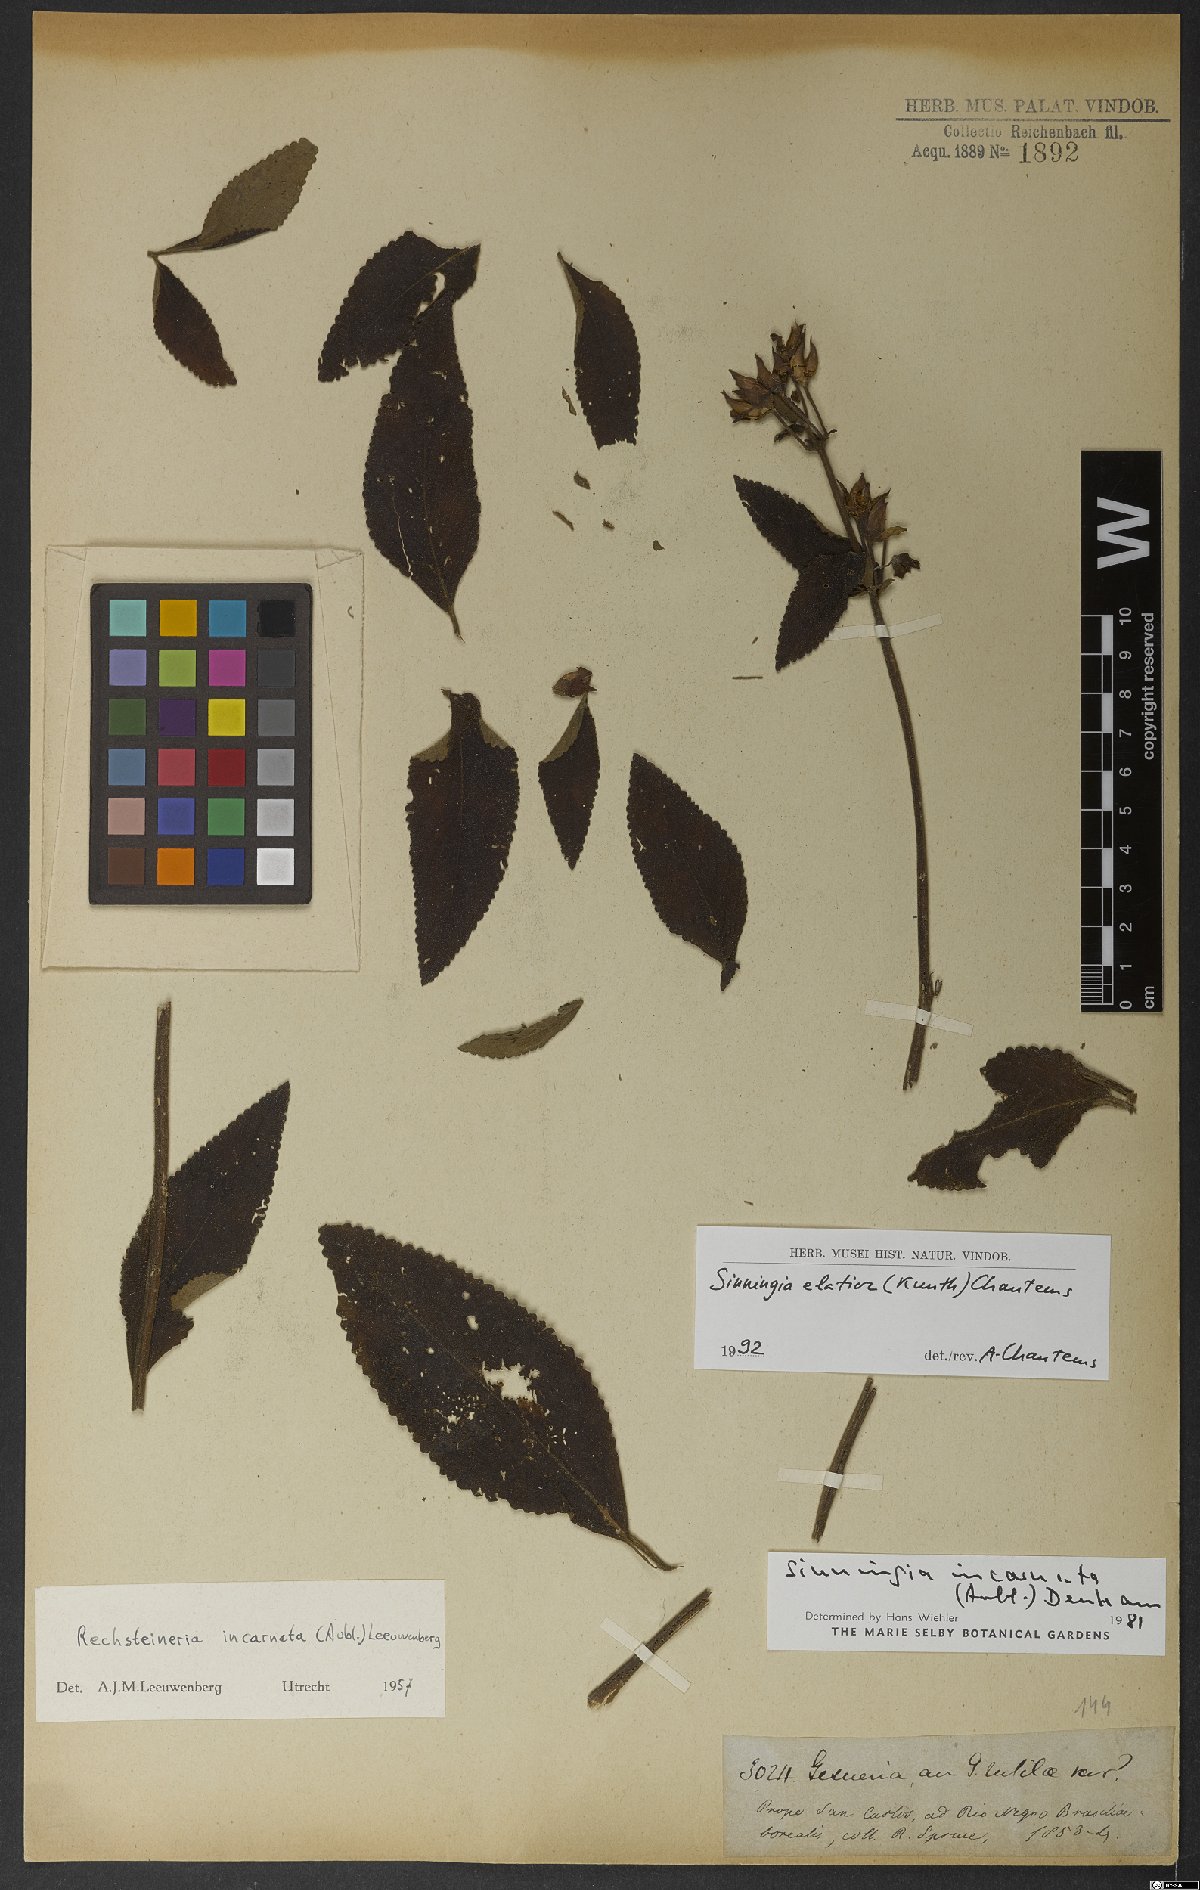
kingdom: Plantae
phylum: Tracheophyta
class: Magnoliopsida
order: Lamiales
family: Gesneriaceae
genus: Sinningia
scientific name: Sinningia elatior
